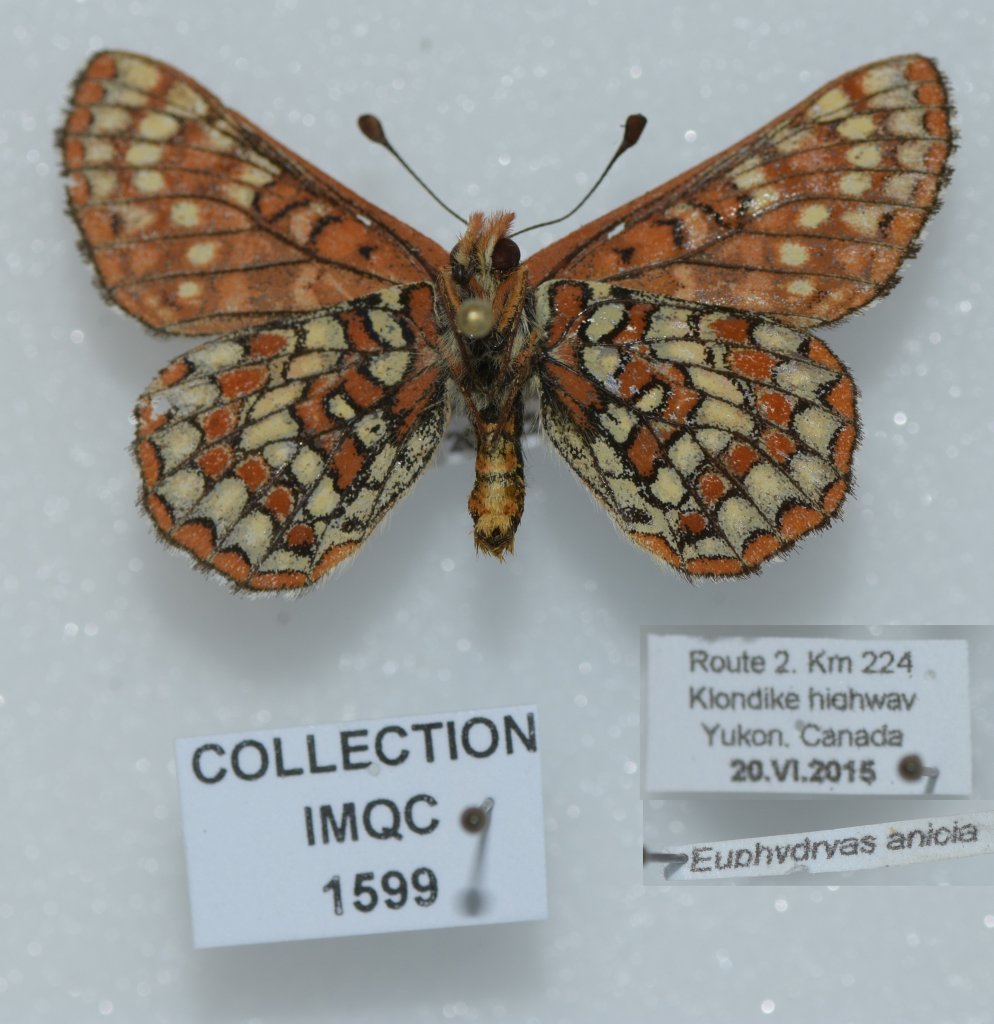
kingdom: Animalia
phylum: Arthropoda
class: Insecta
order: Lepidoptera
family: Nymphalidae
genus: Occidryas
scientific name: Occidryas anicia
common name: Anicia Checkerspot
